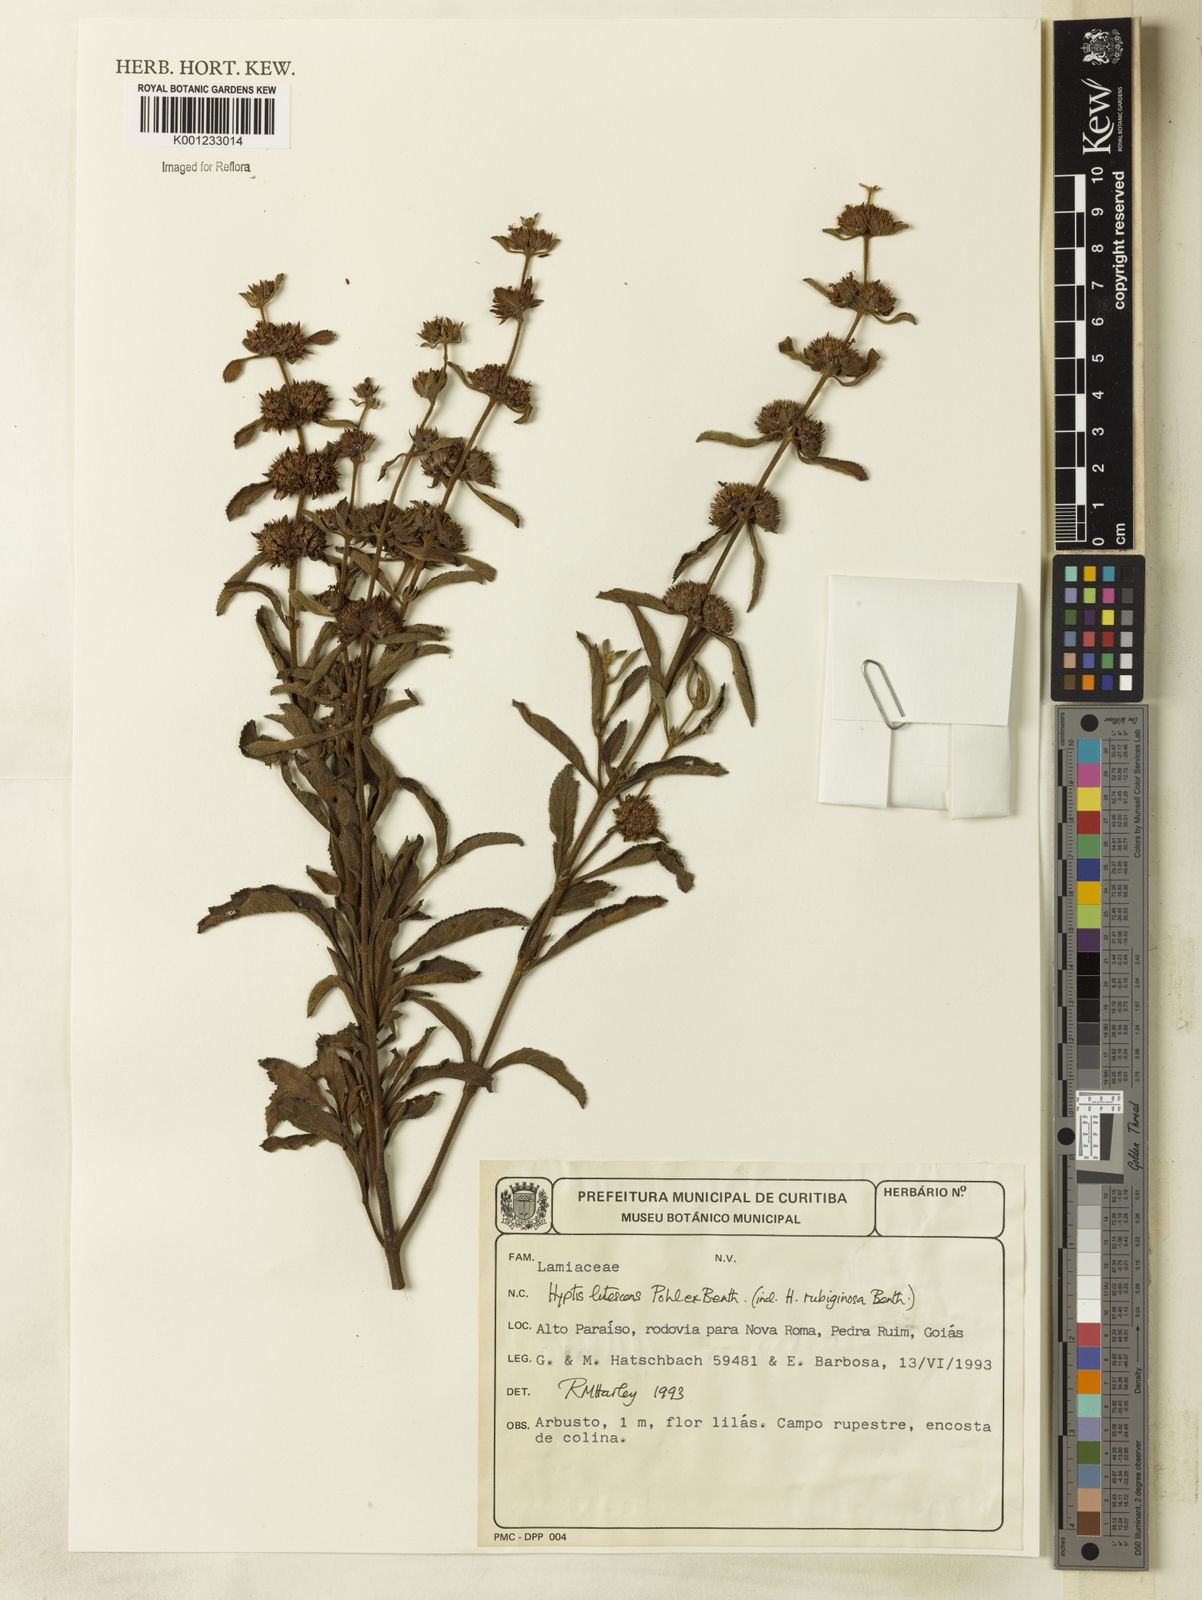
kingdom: Plantae
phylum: Tracheophyta
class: Magnoliopsida
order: Lamiales
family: Lamiaceae
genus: Hyptis
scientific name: Hyptis lutescens
